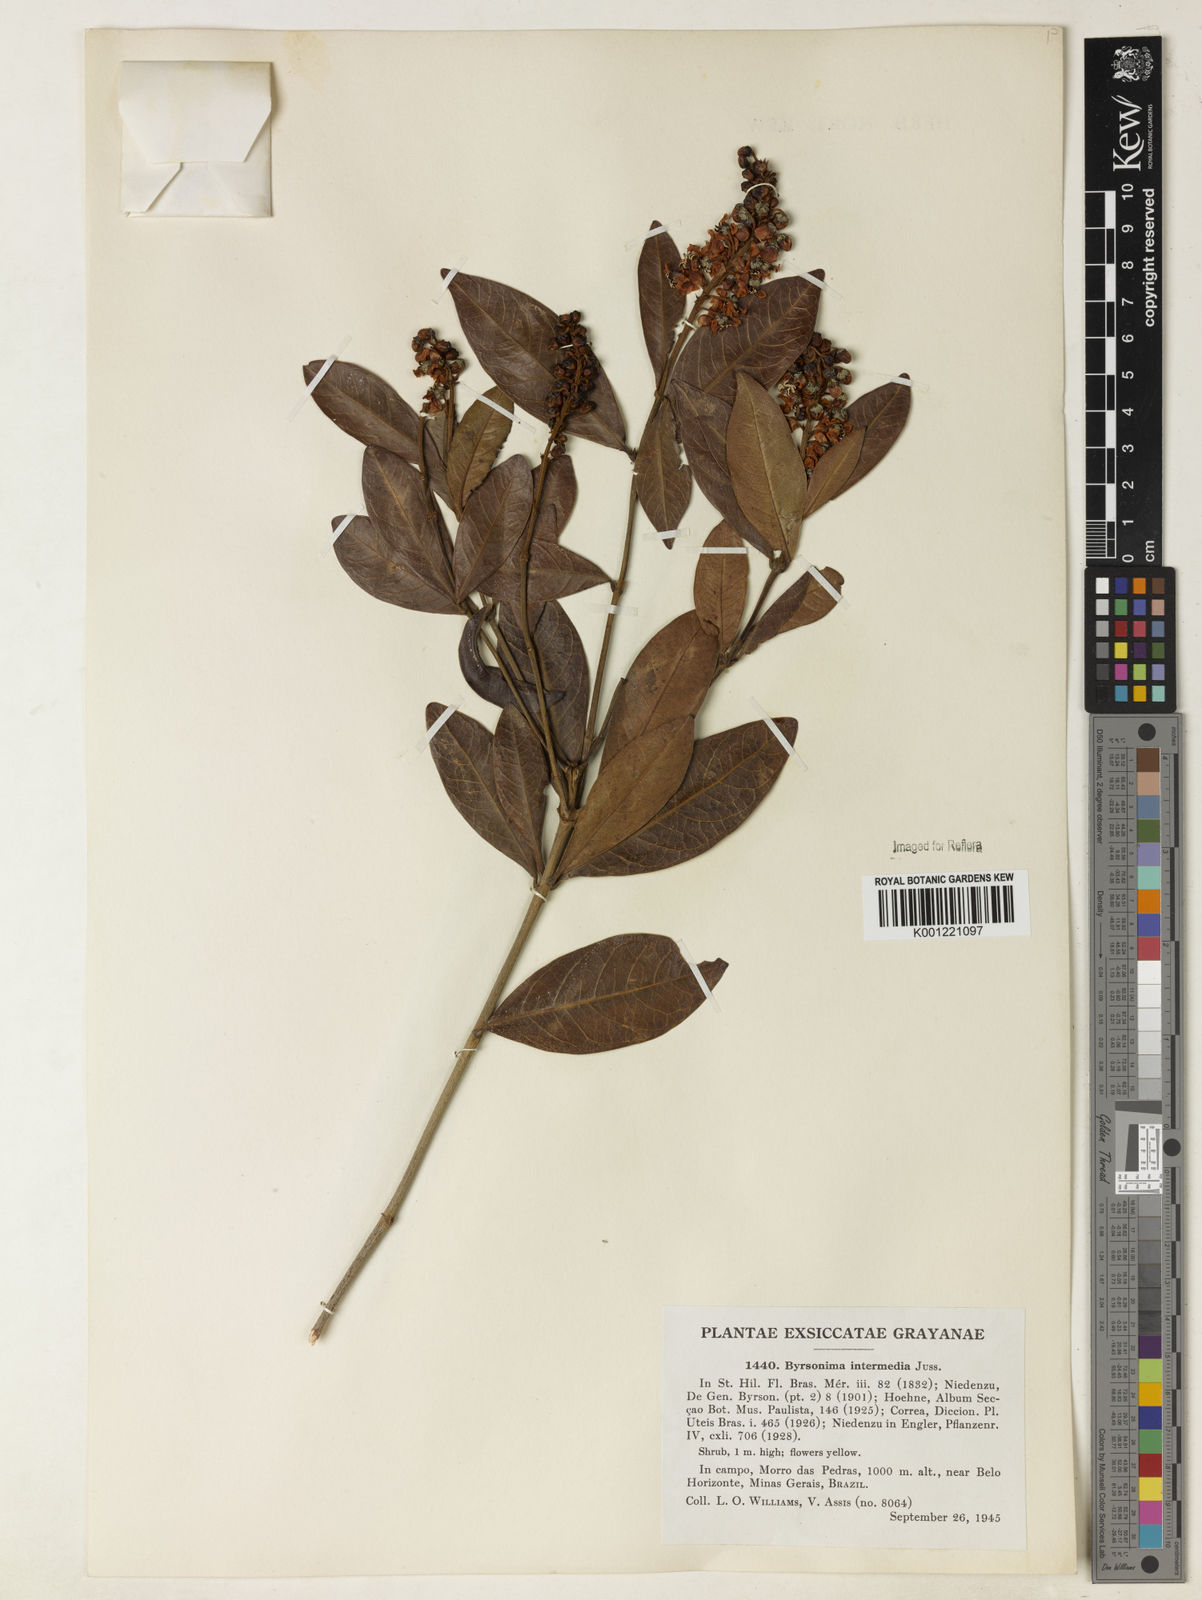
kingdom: Plantae
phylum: Tracheophyta
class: Magnoliopsida
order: Malpighiales
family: Malpighiaceae
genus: Byrsonima
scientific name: Byrsonima intermedia
